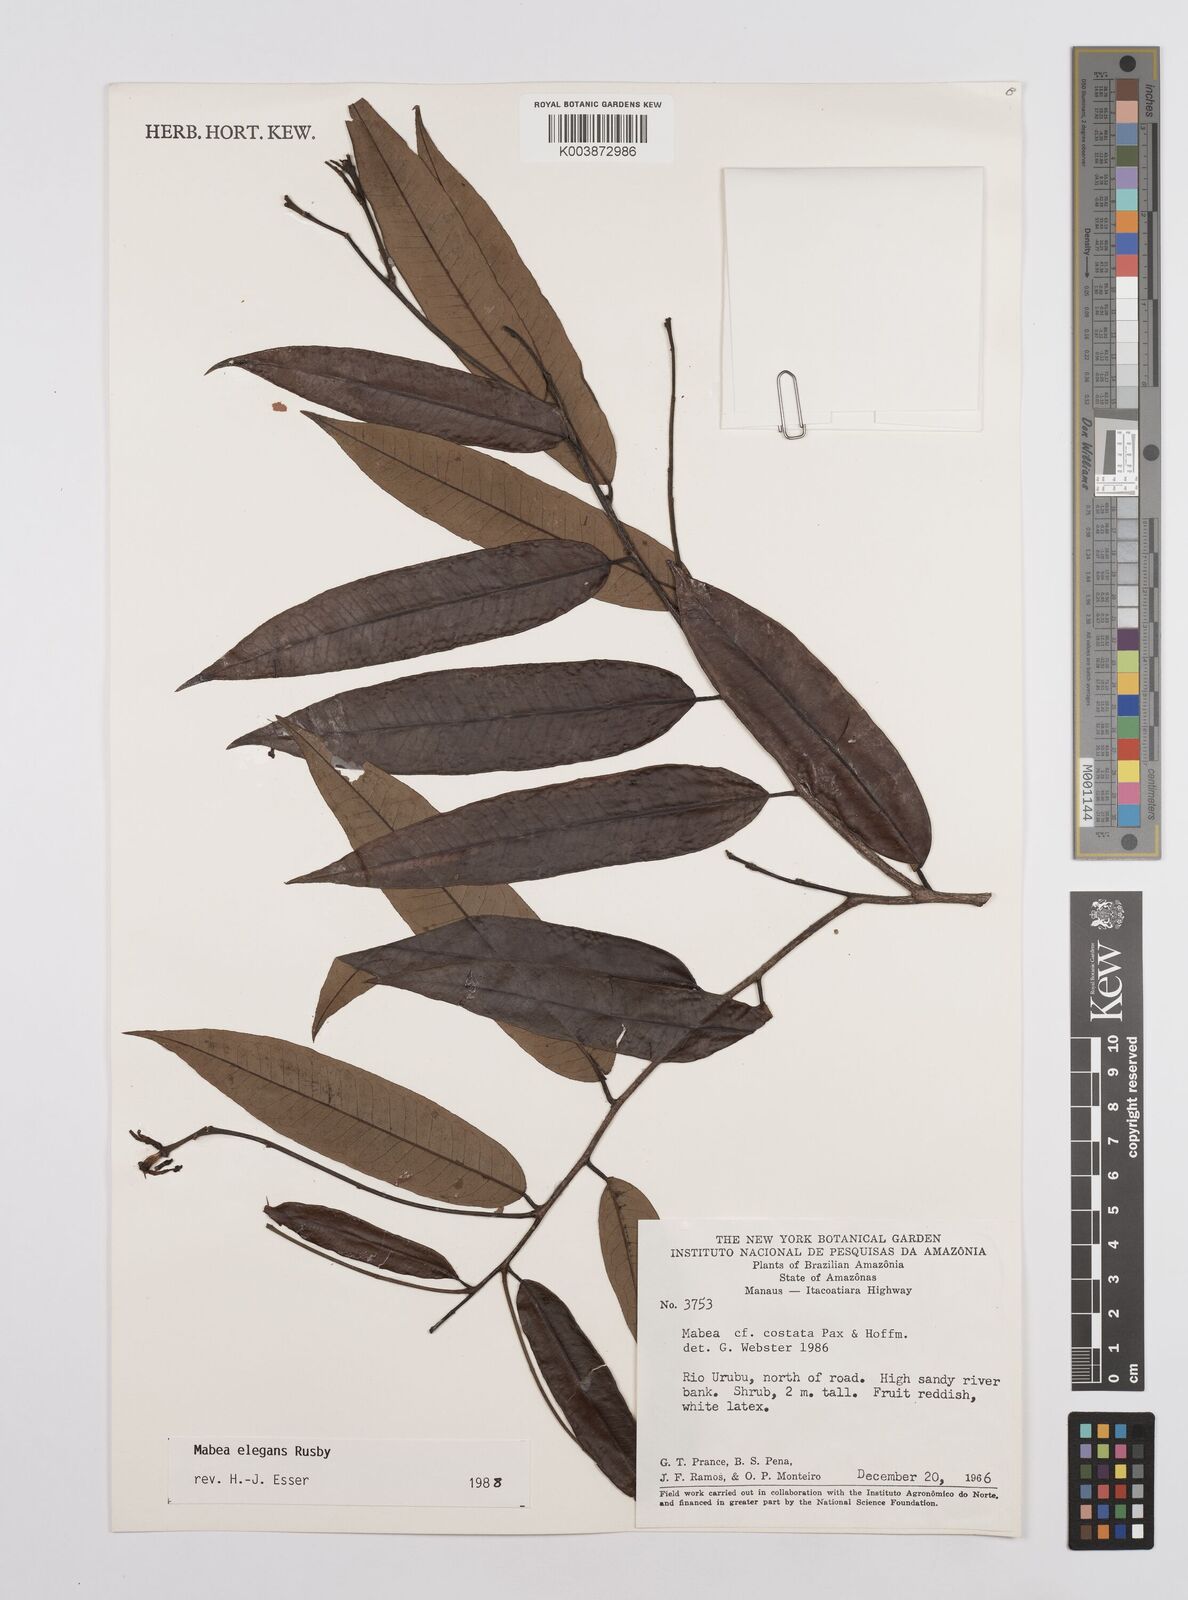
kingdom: Plantae
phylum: Tracheophyta
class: Magnoliopsida
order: Malpighiales
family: Euphorbiaceae
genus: Mabea
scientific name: Mabea montana
